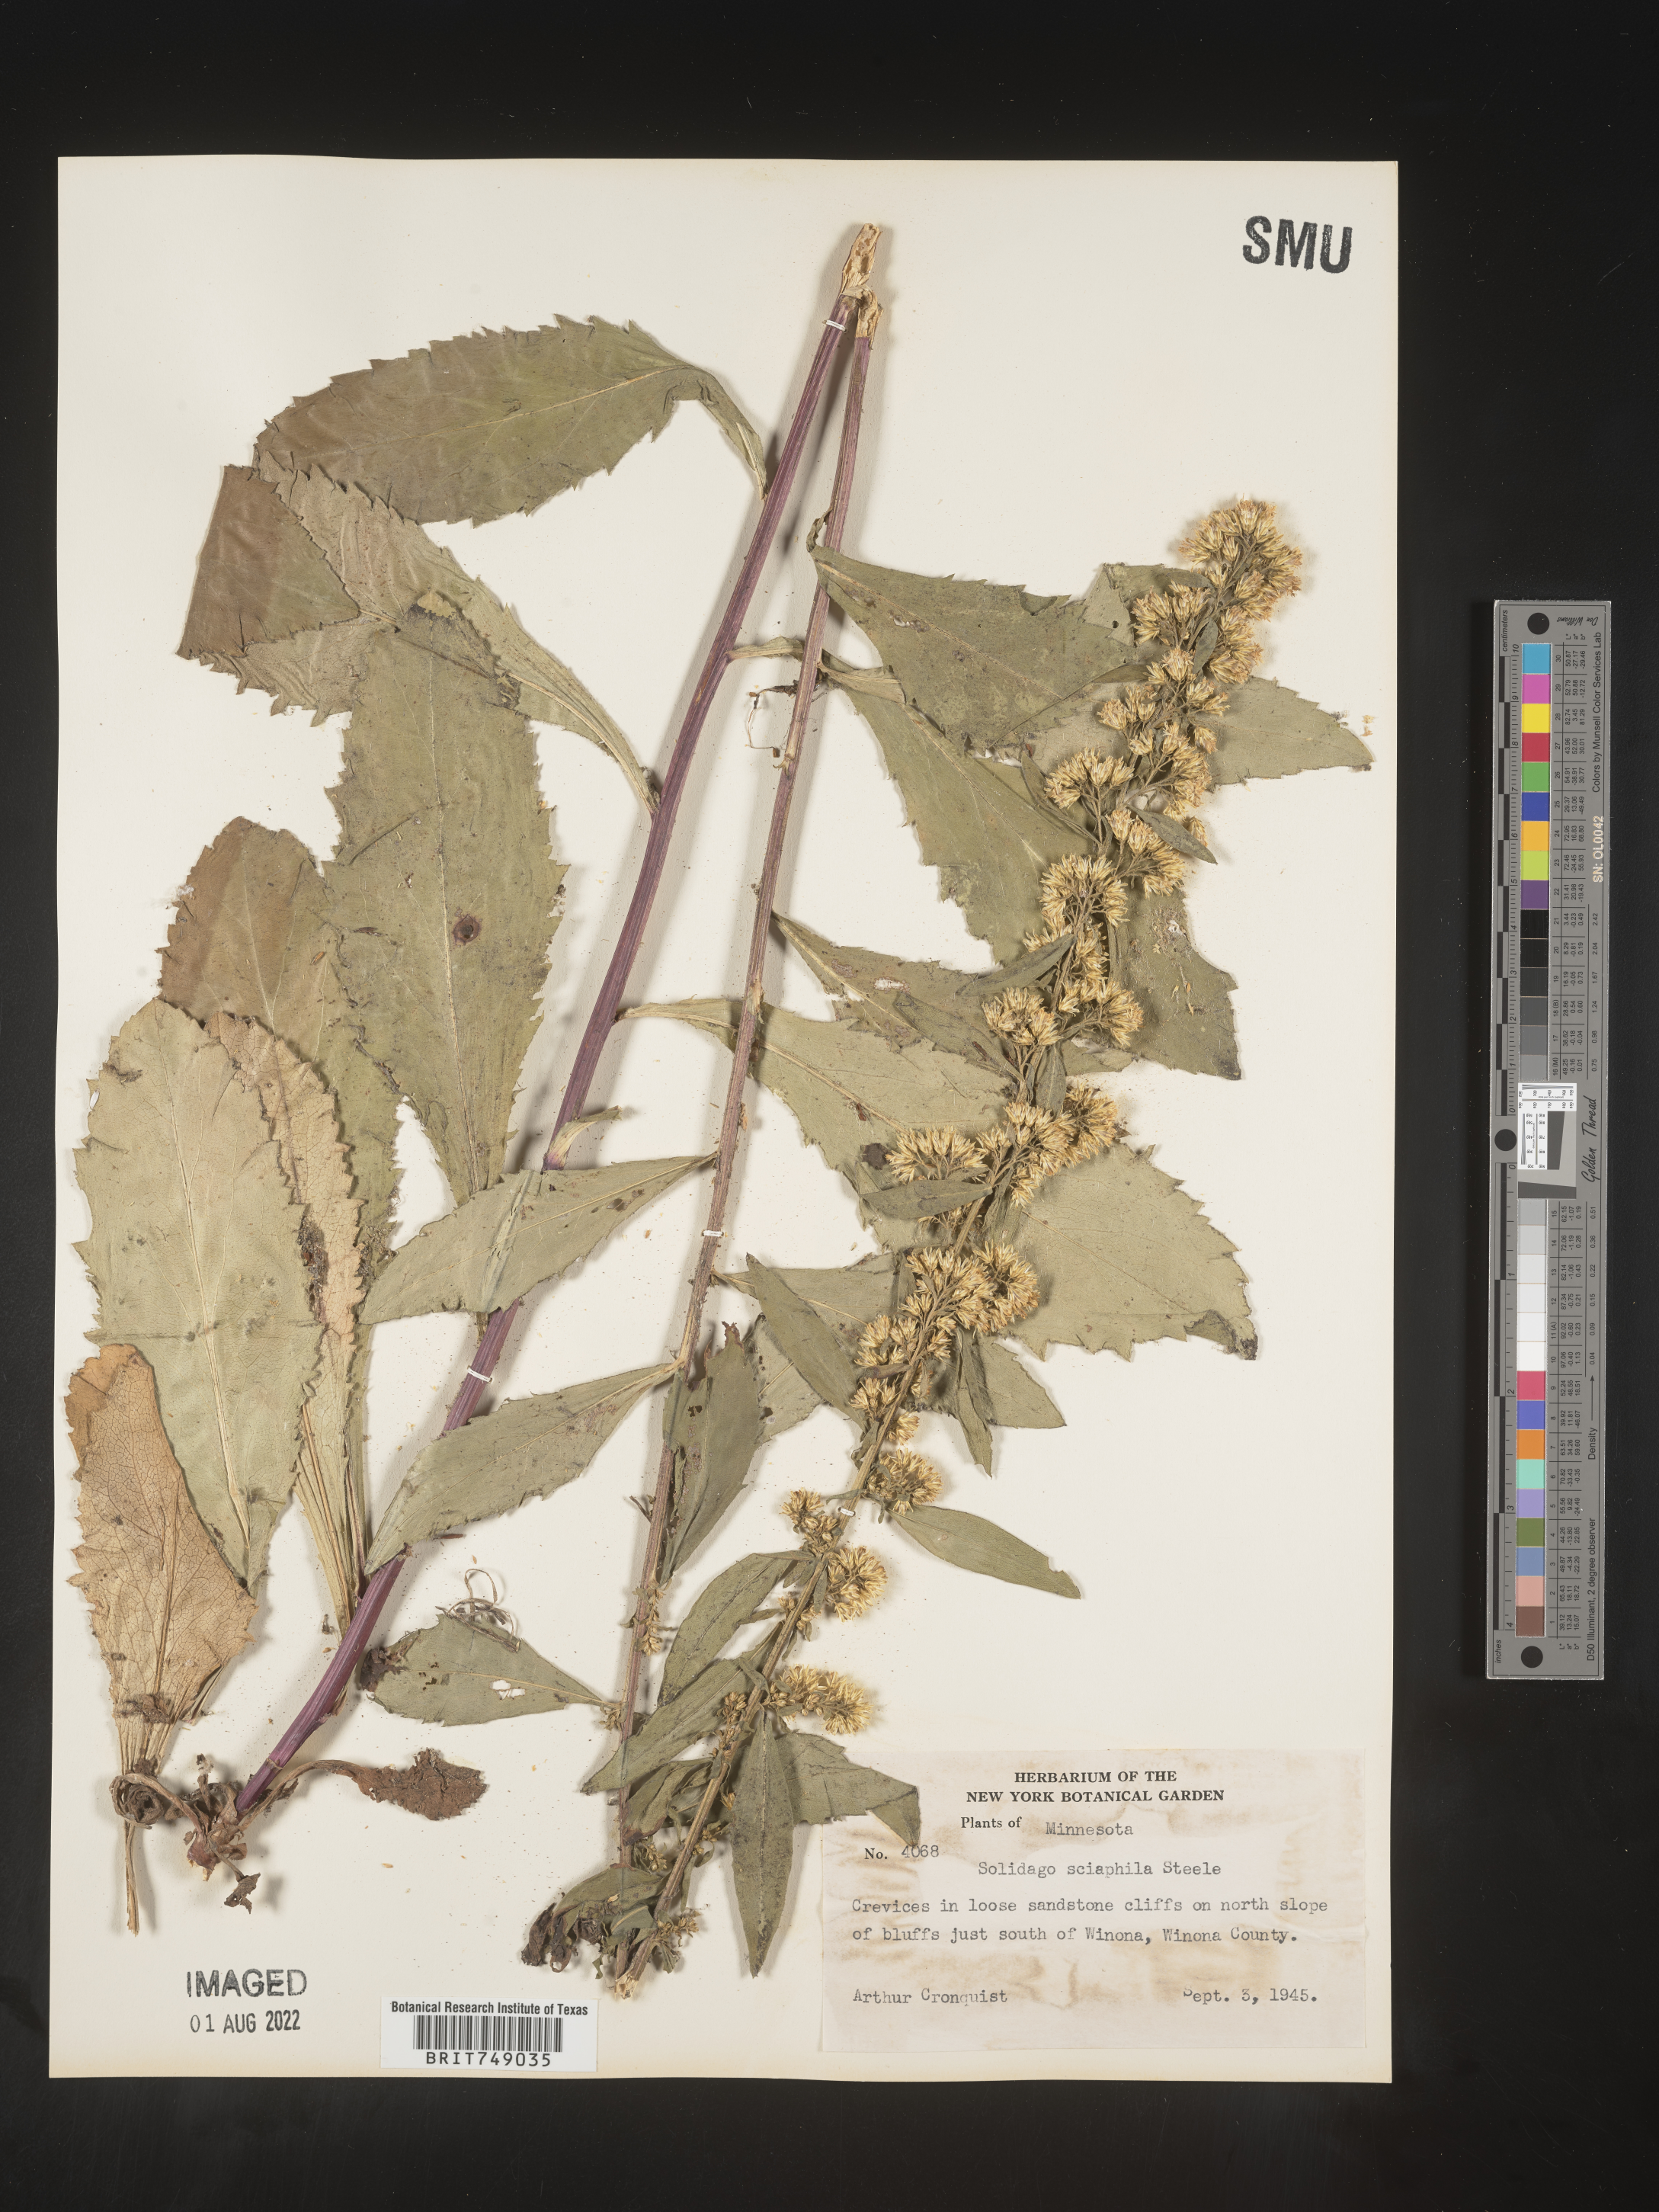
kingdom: Plantae
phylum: Tracheophyta
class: Magnoliopsida
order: Asterales
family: Asteraceae
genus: Solidago
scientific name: Solidago sciaphila
